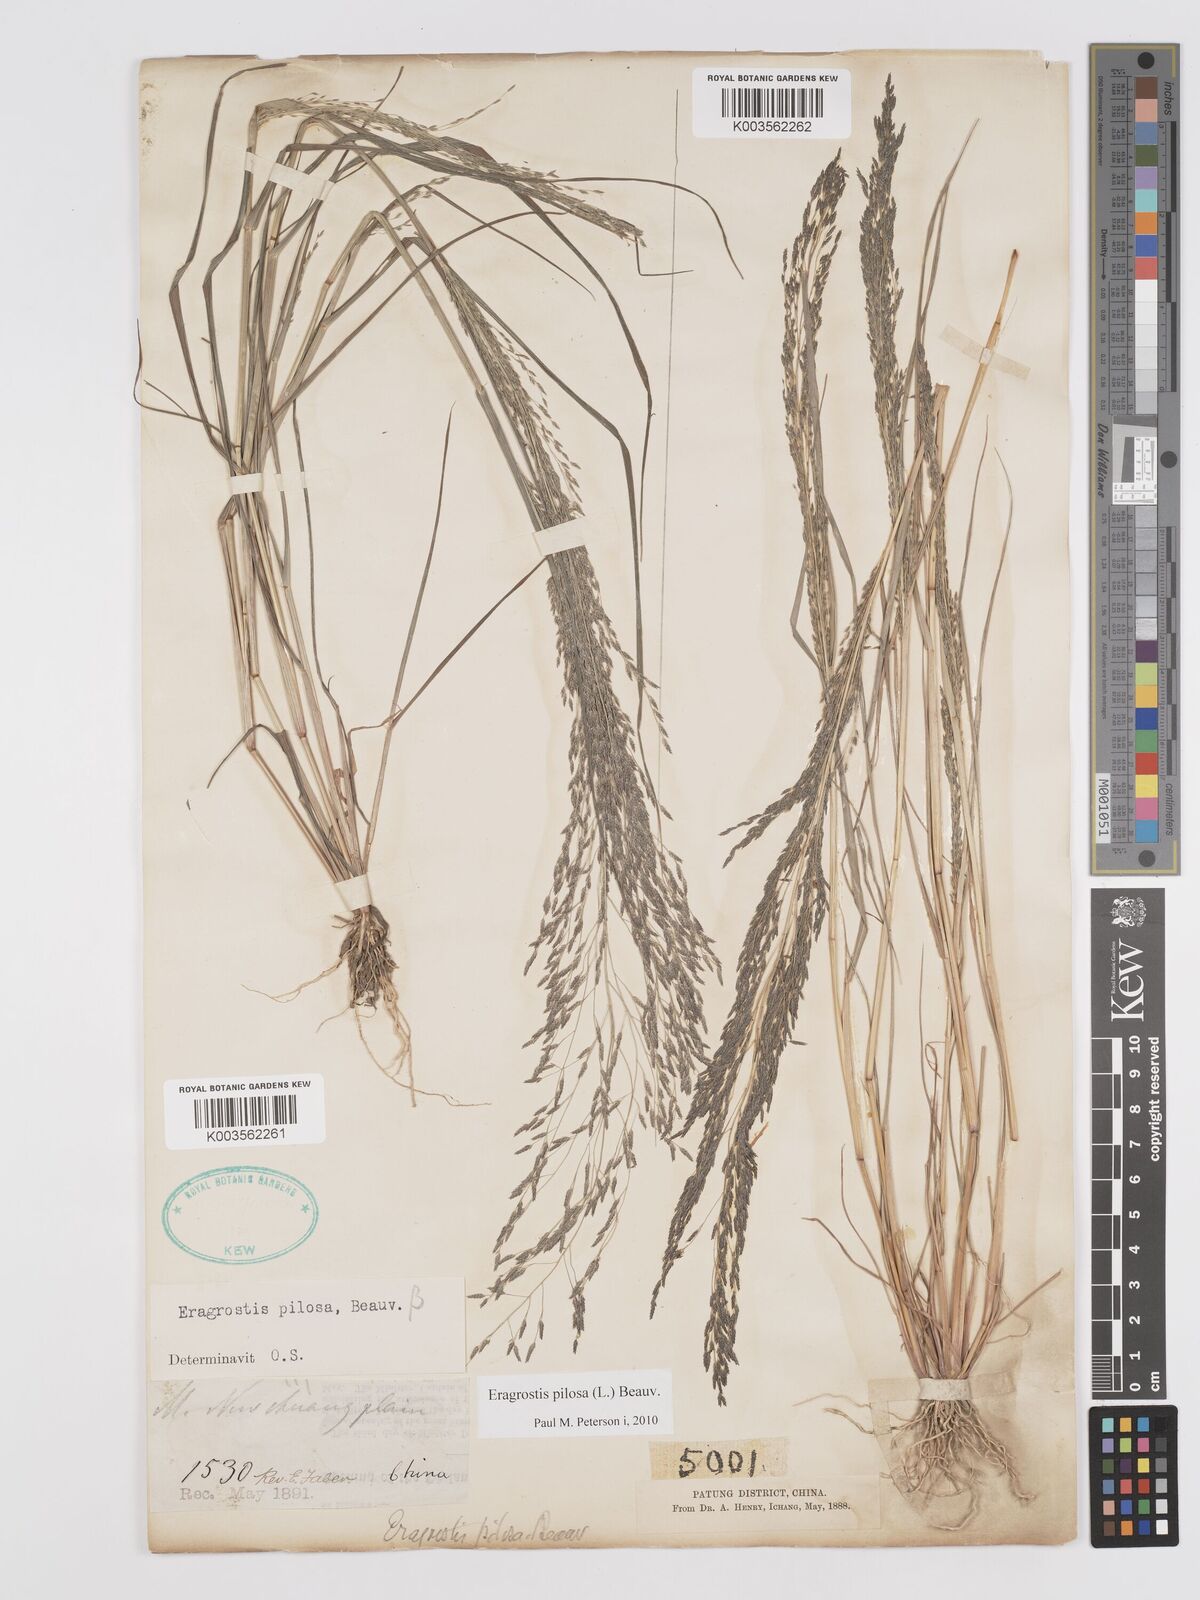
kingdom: Plantae
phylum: Tracheophyta
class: Liliopsida
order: Poales
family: Poaceae
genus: Eragrostis
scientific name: Eragrostis pilosa
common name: Indian lovegrass
